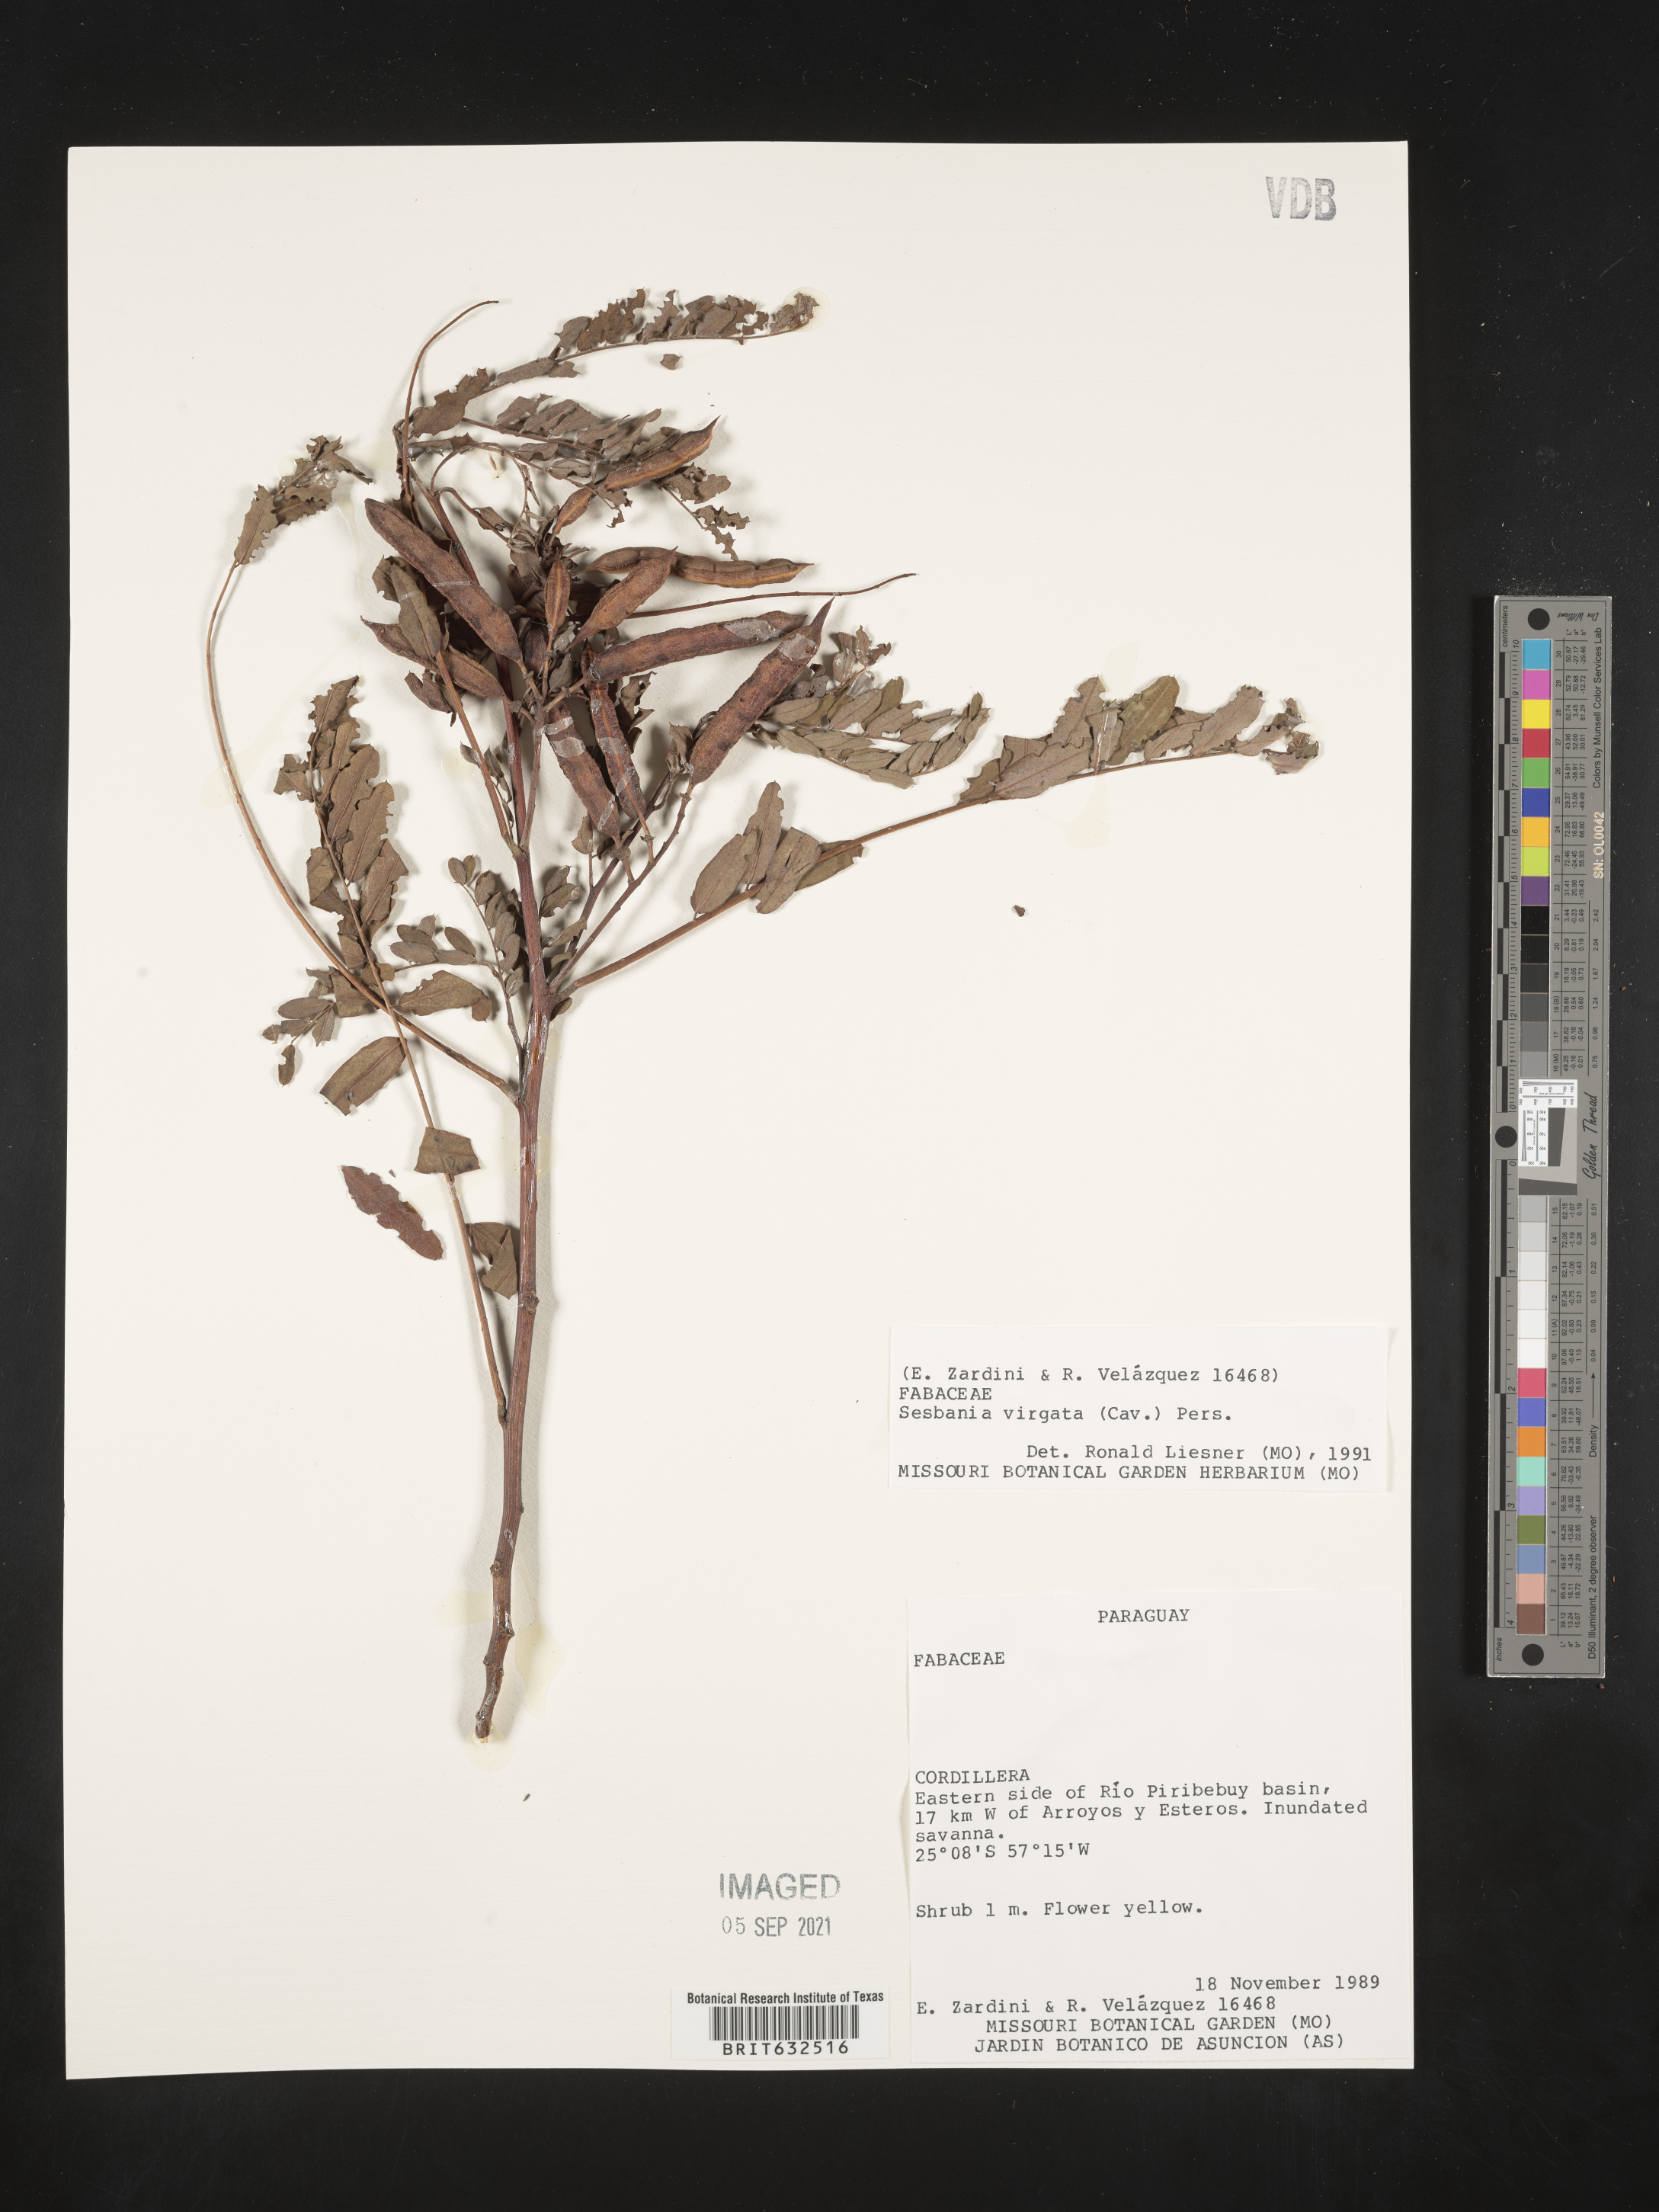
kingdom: Plantae
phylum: Tracheophyta
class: Magnoliopsida
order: Fabales
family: Fabaceae
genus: Sesbania
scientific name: Sesbania
